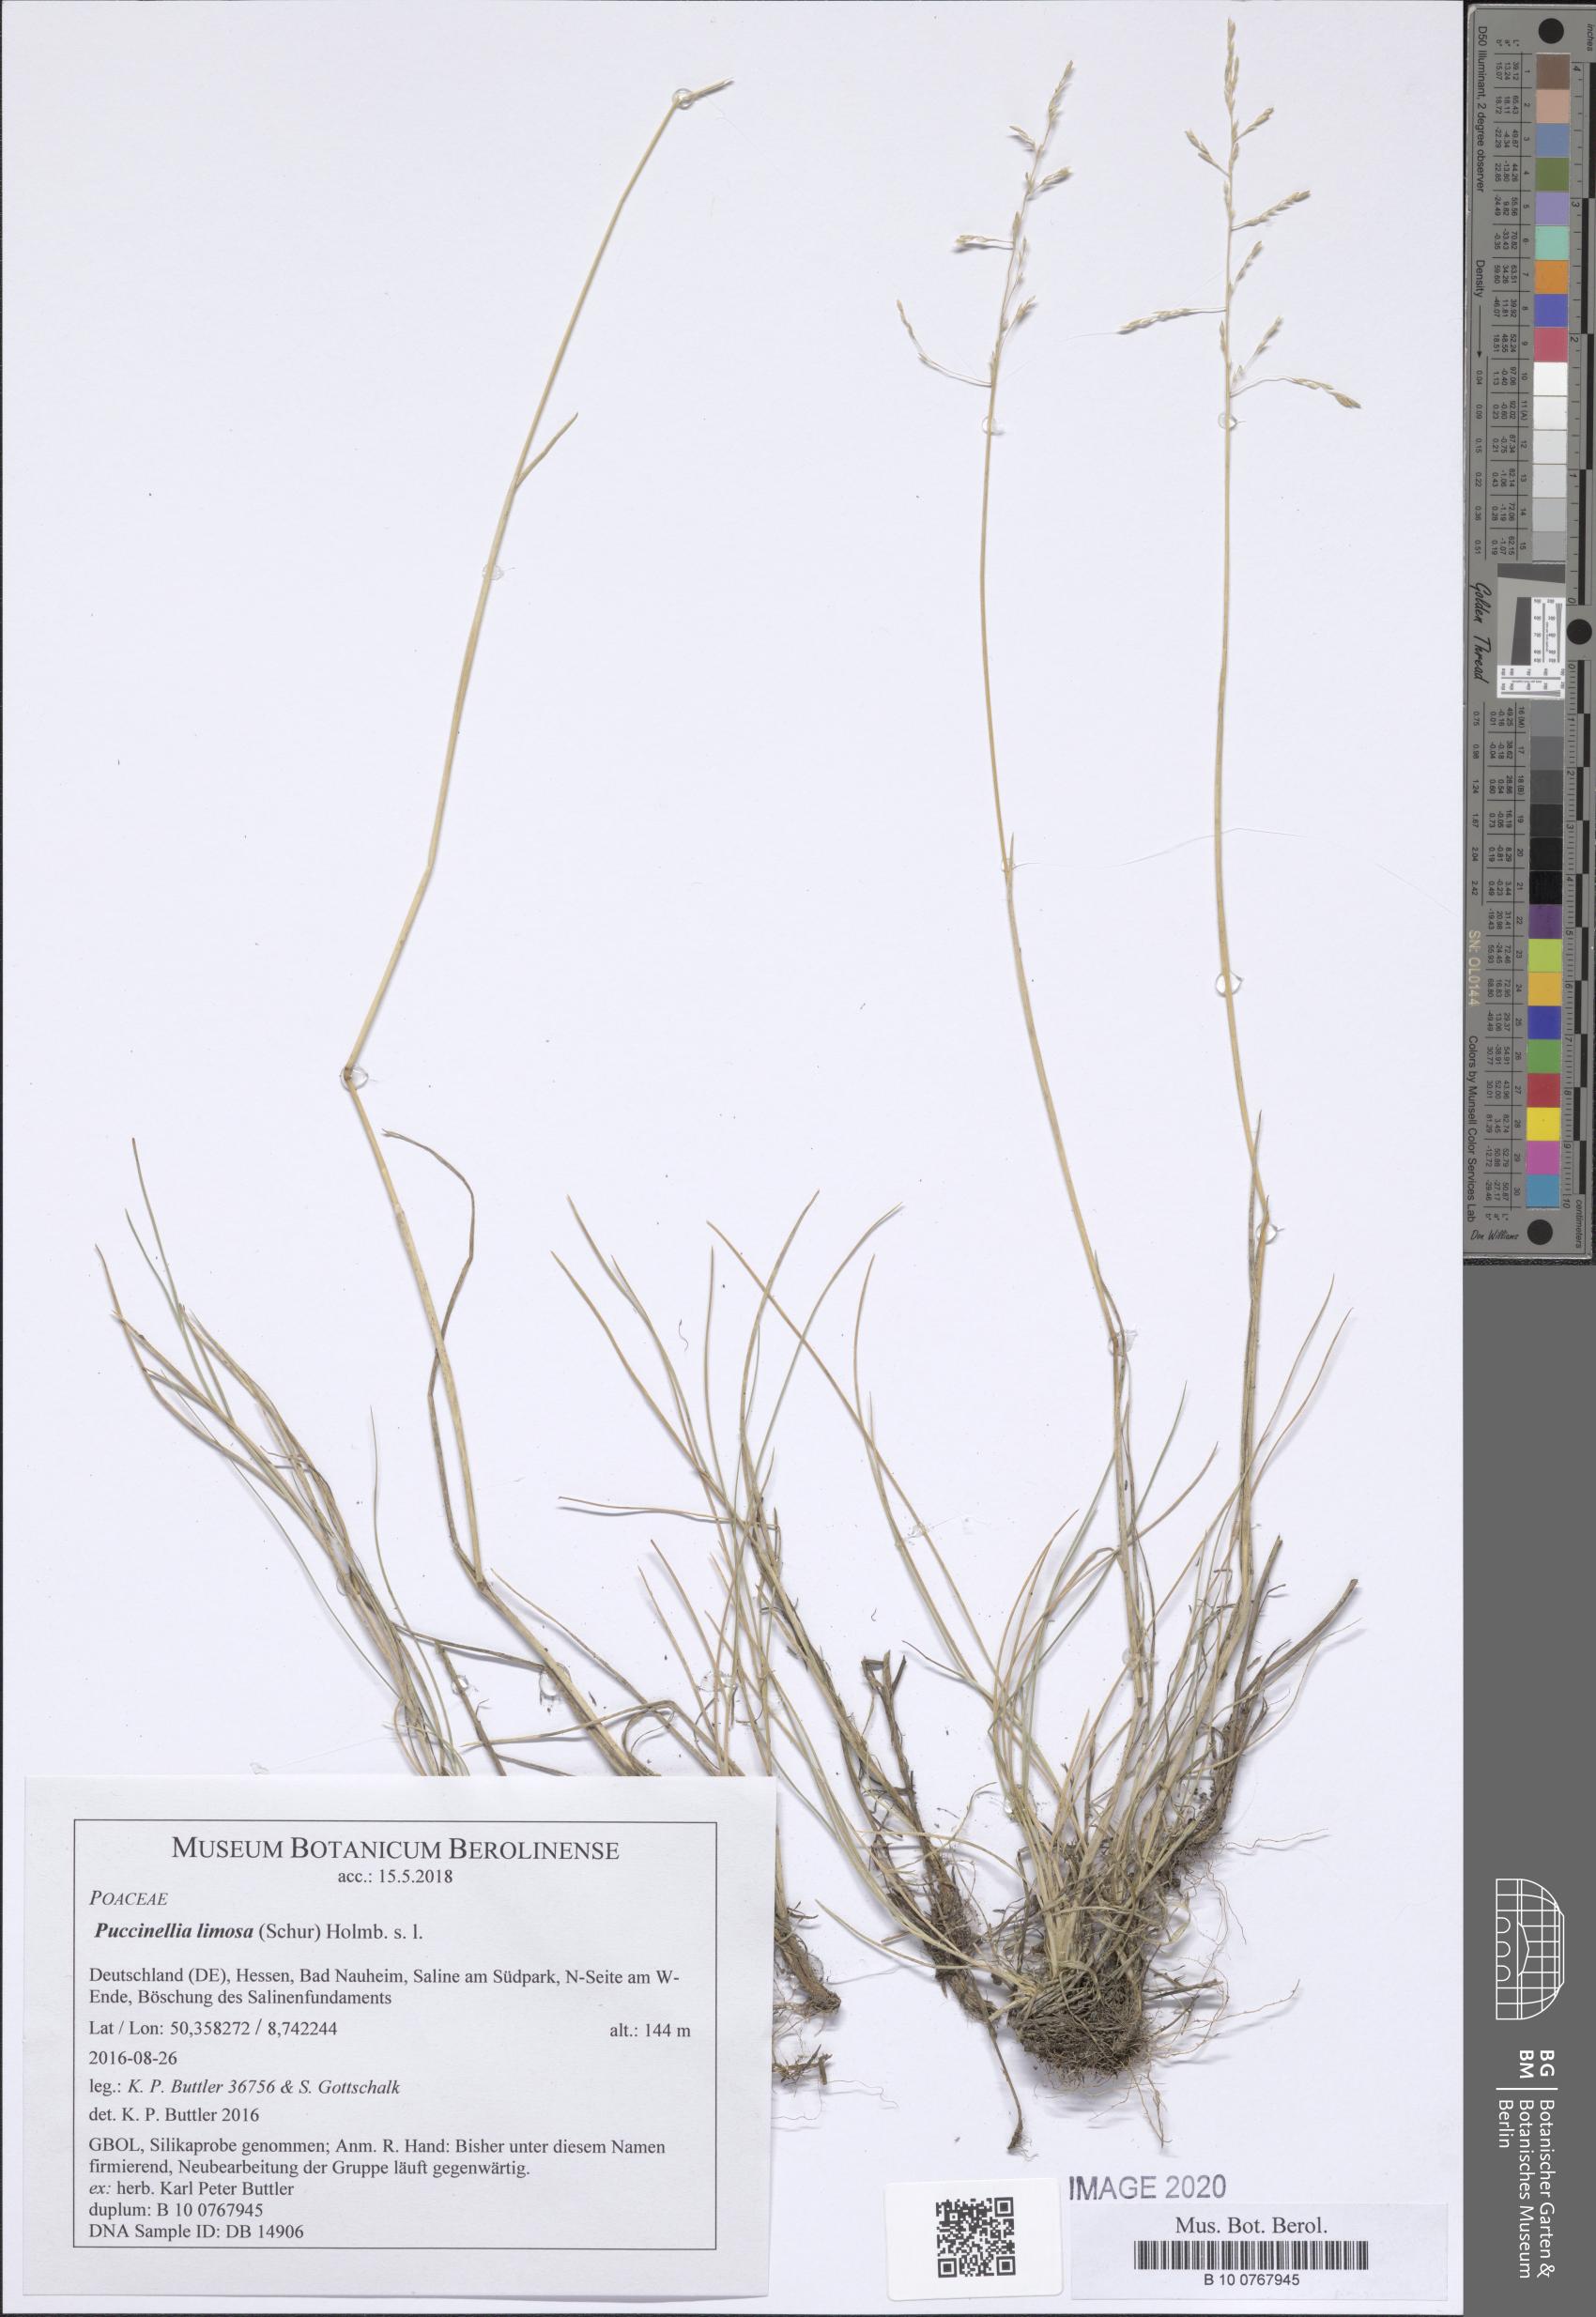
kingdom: Plantae
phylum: Tracheophyta
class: Liliopsida
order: Poales
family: Poaceae
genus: Puccinellia
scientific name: Puccinellia distans
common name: Weeping alkaligrass
